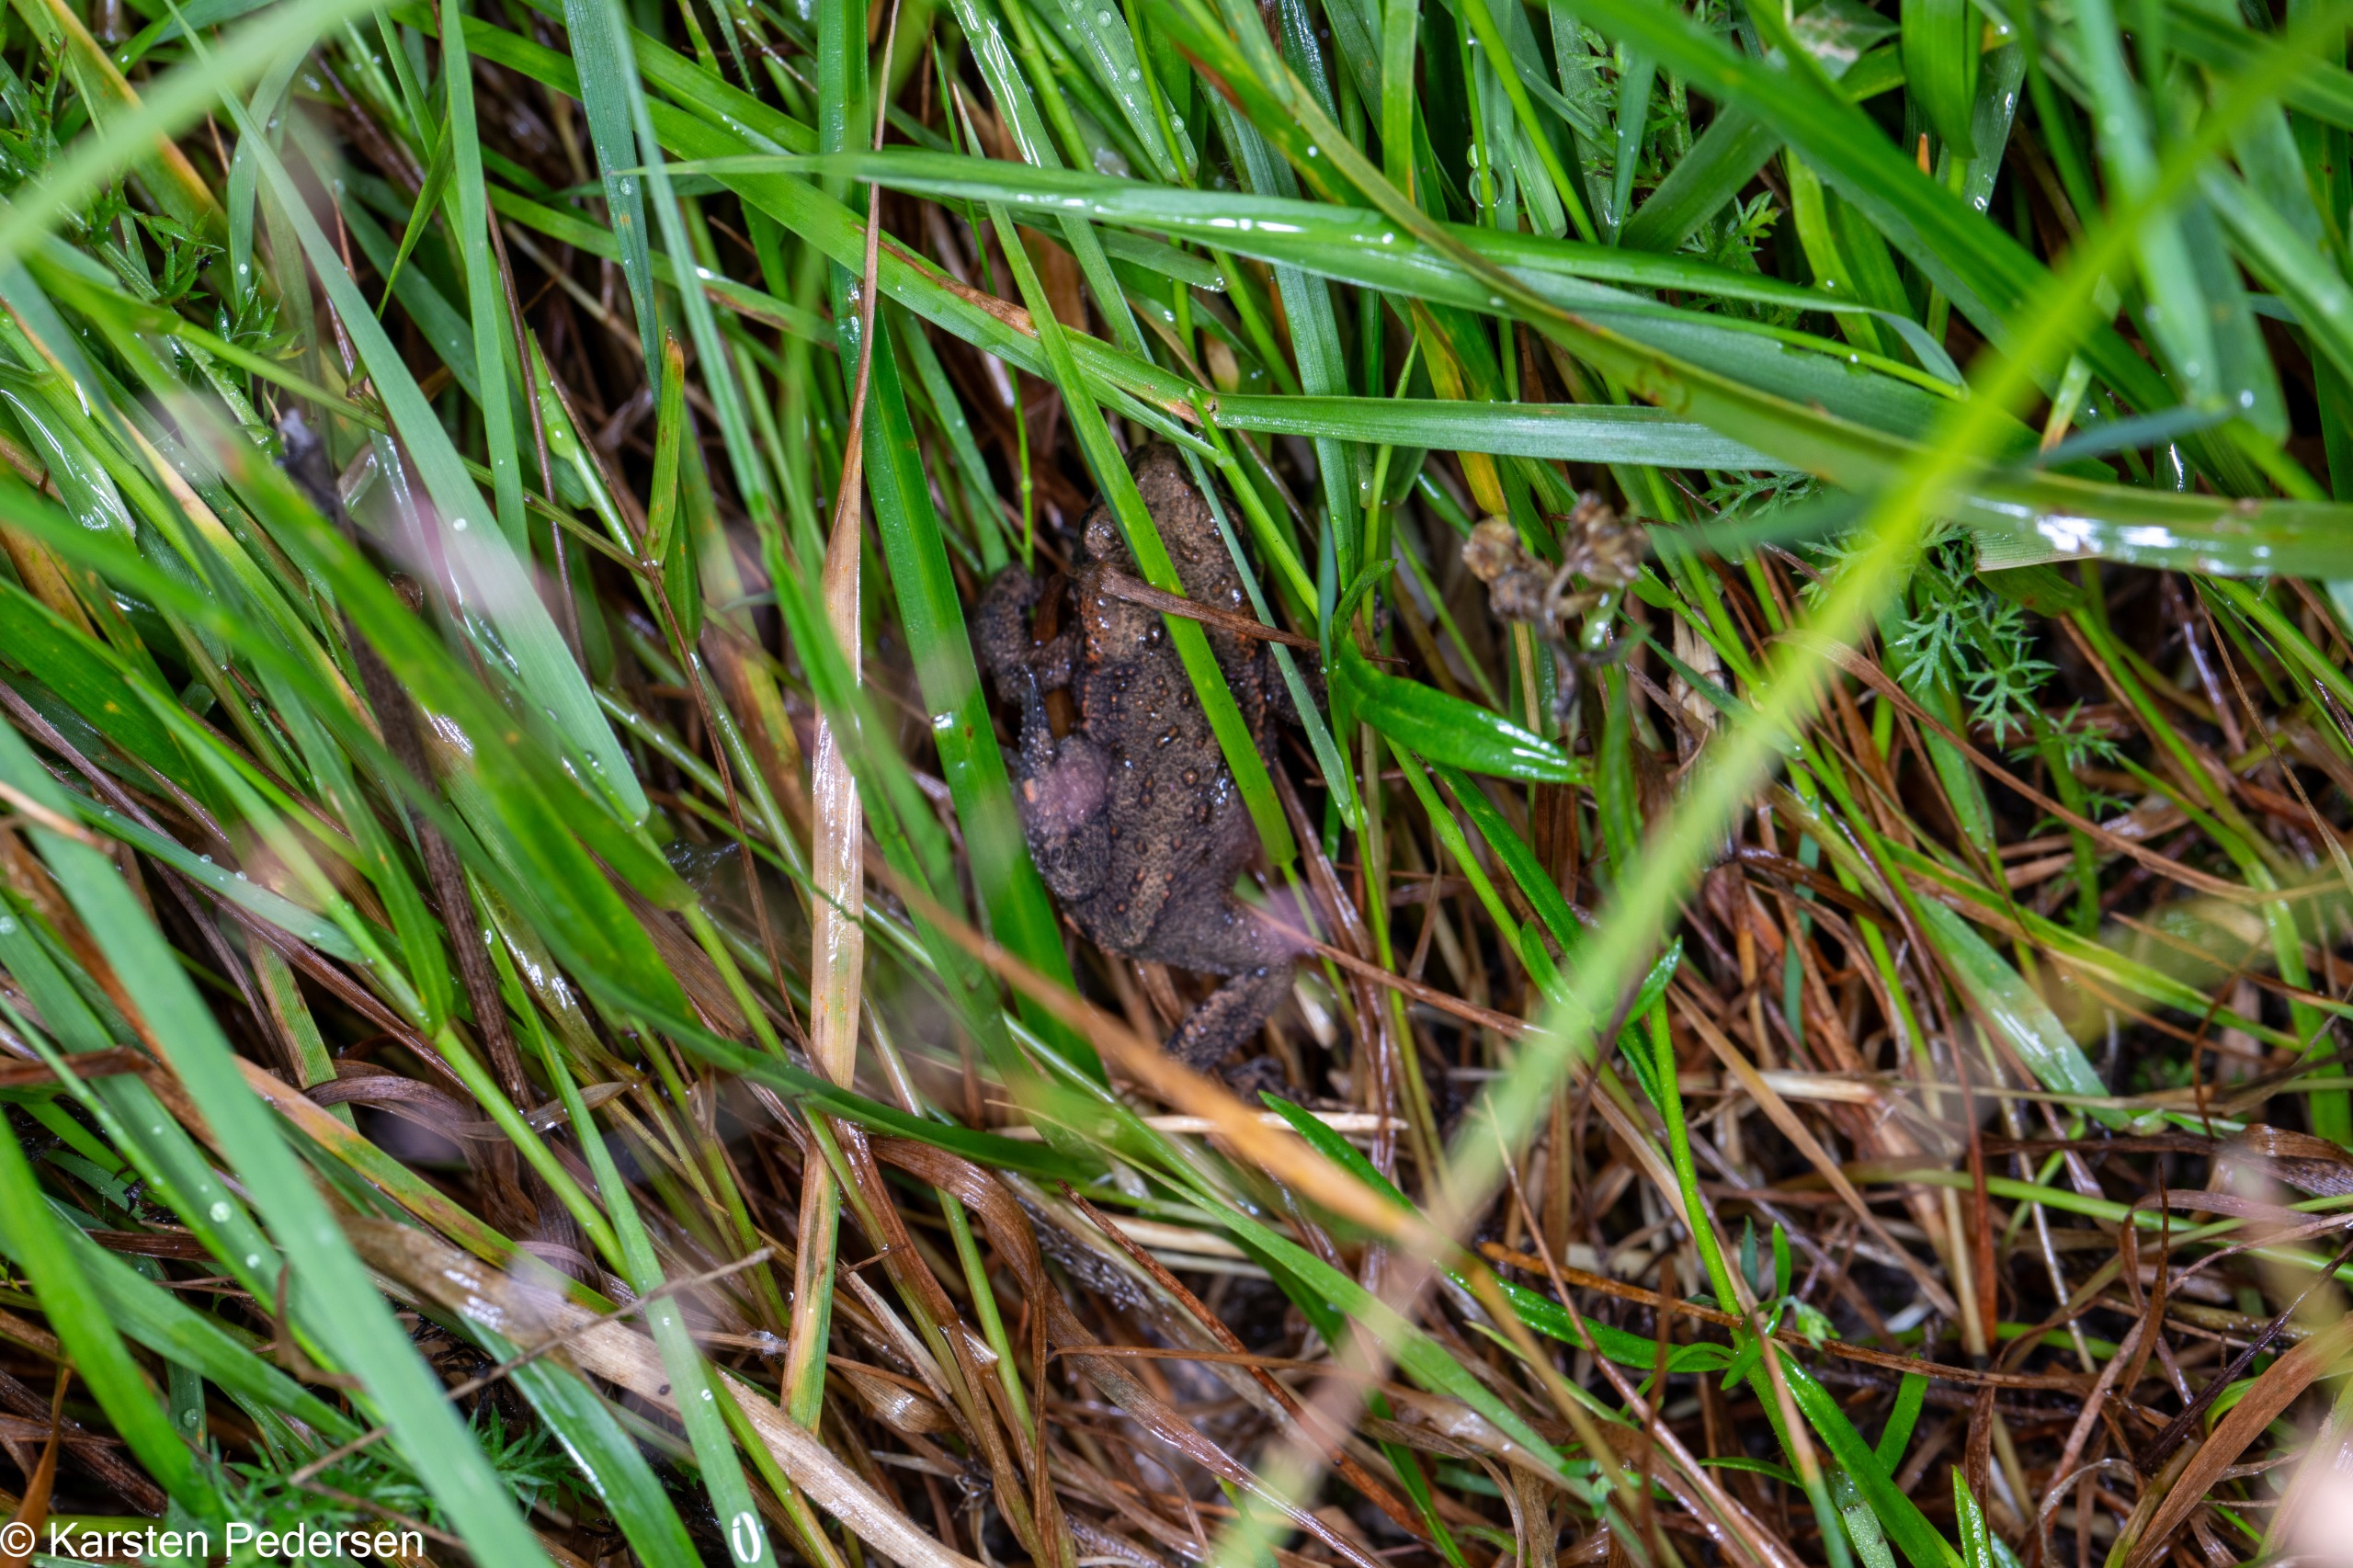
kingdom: Animalia
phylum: Chordata
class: Amphibia
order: Anura
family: Bufonidae
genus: Bufo
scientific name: Bufo bufo
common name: Skrubtudse
